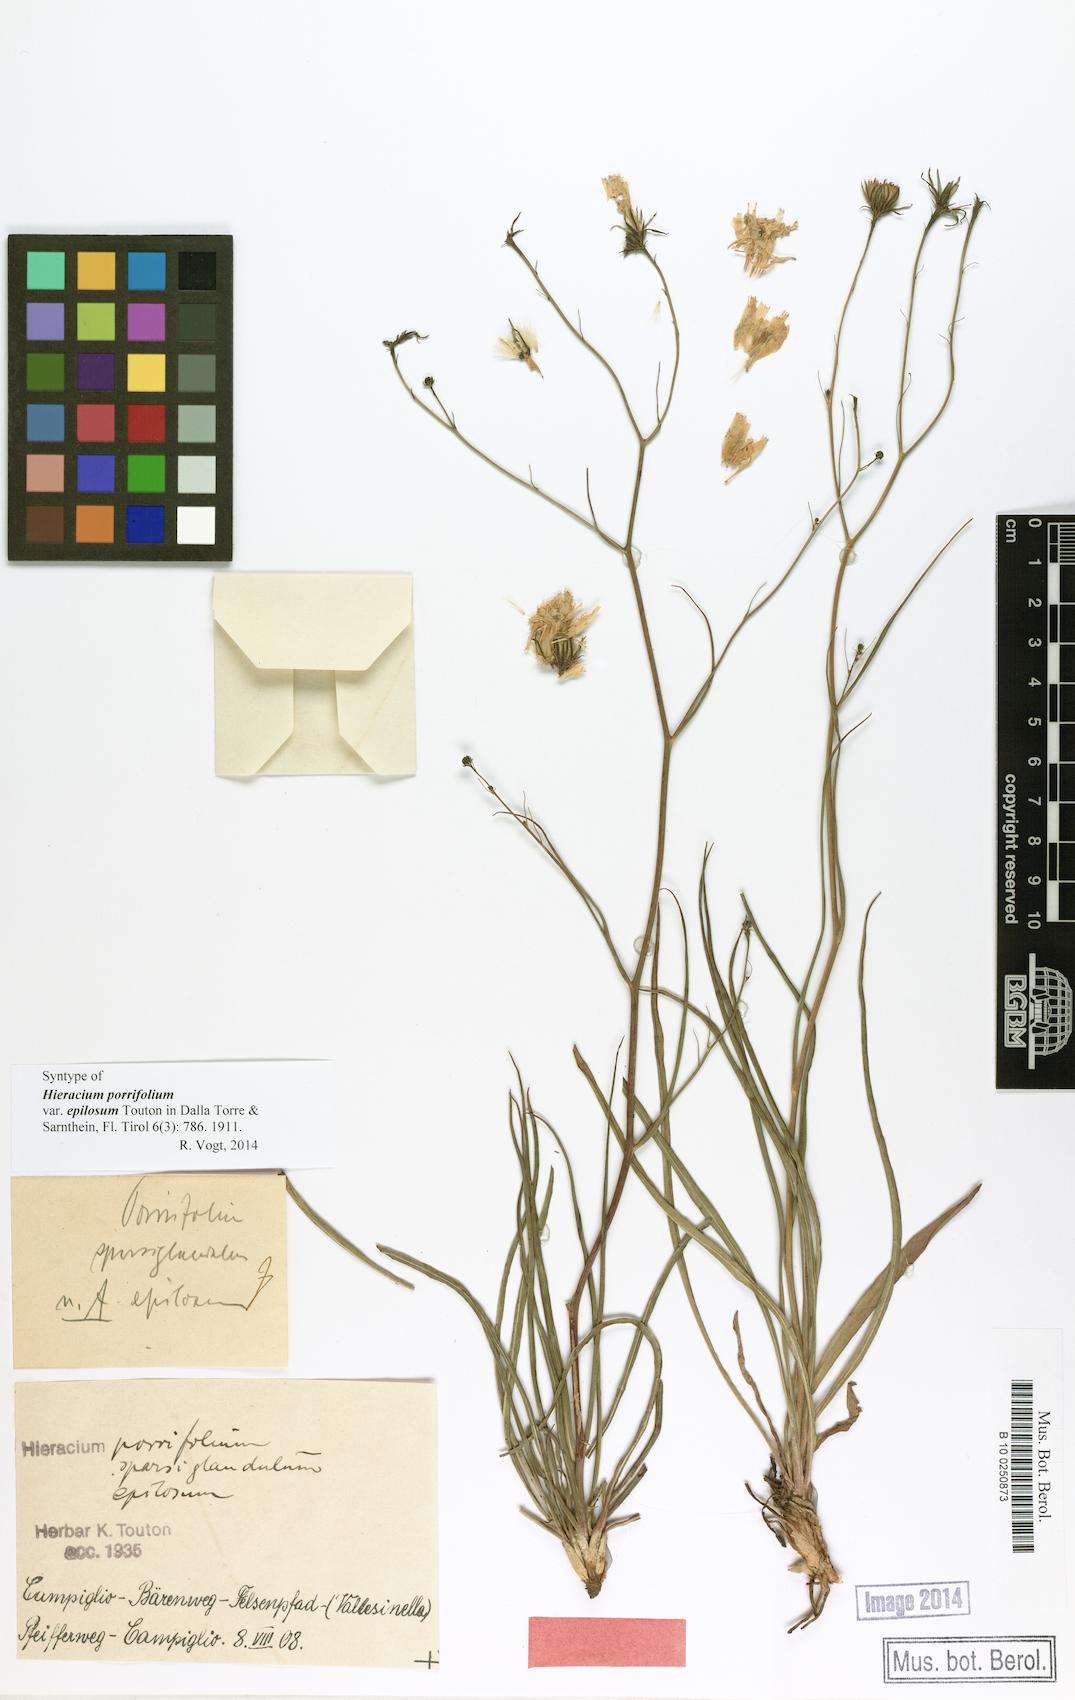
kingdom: Plantae
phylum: Tracheophyta
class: Magnoliopsida
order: Asterales
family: Asteraceae
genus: Hieracium
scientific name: Hieracium porrifolium
